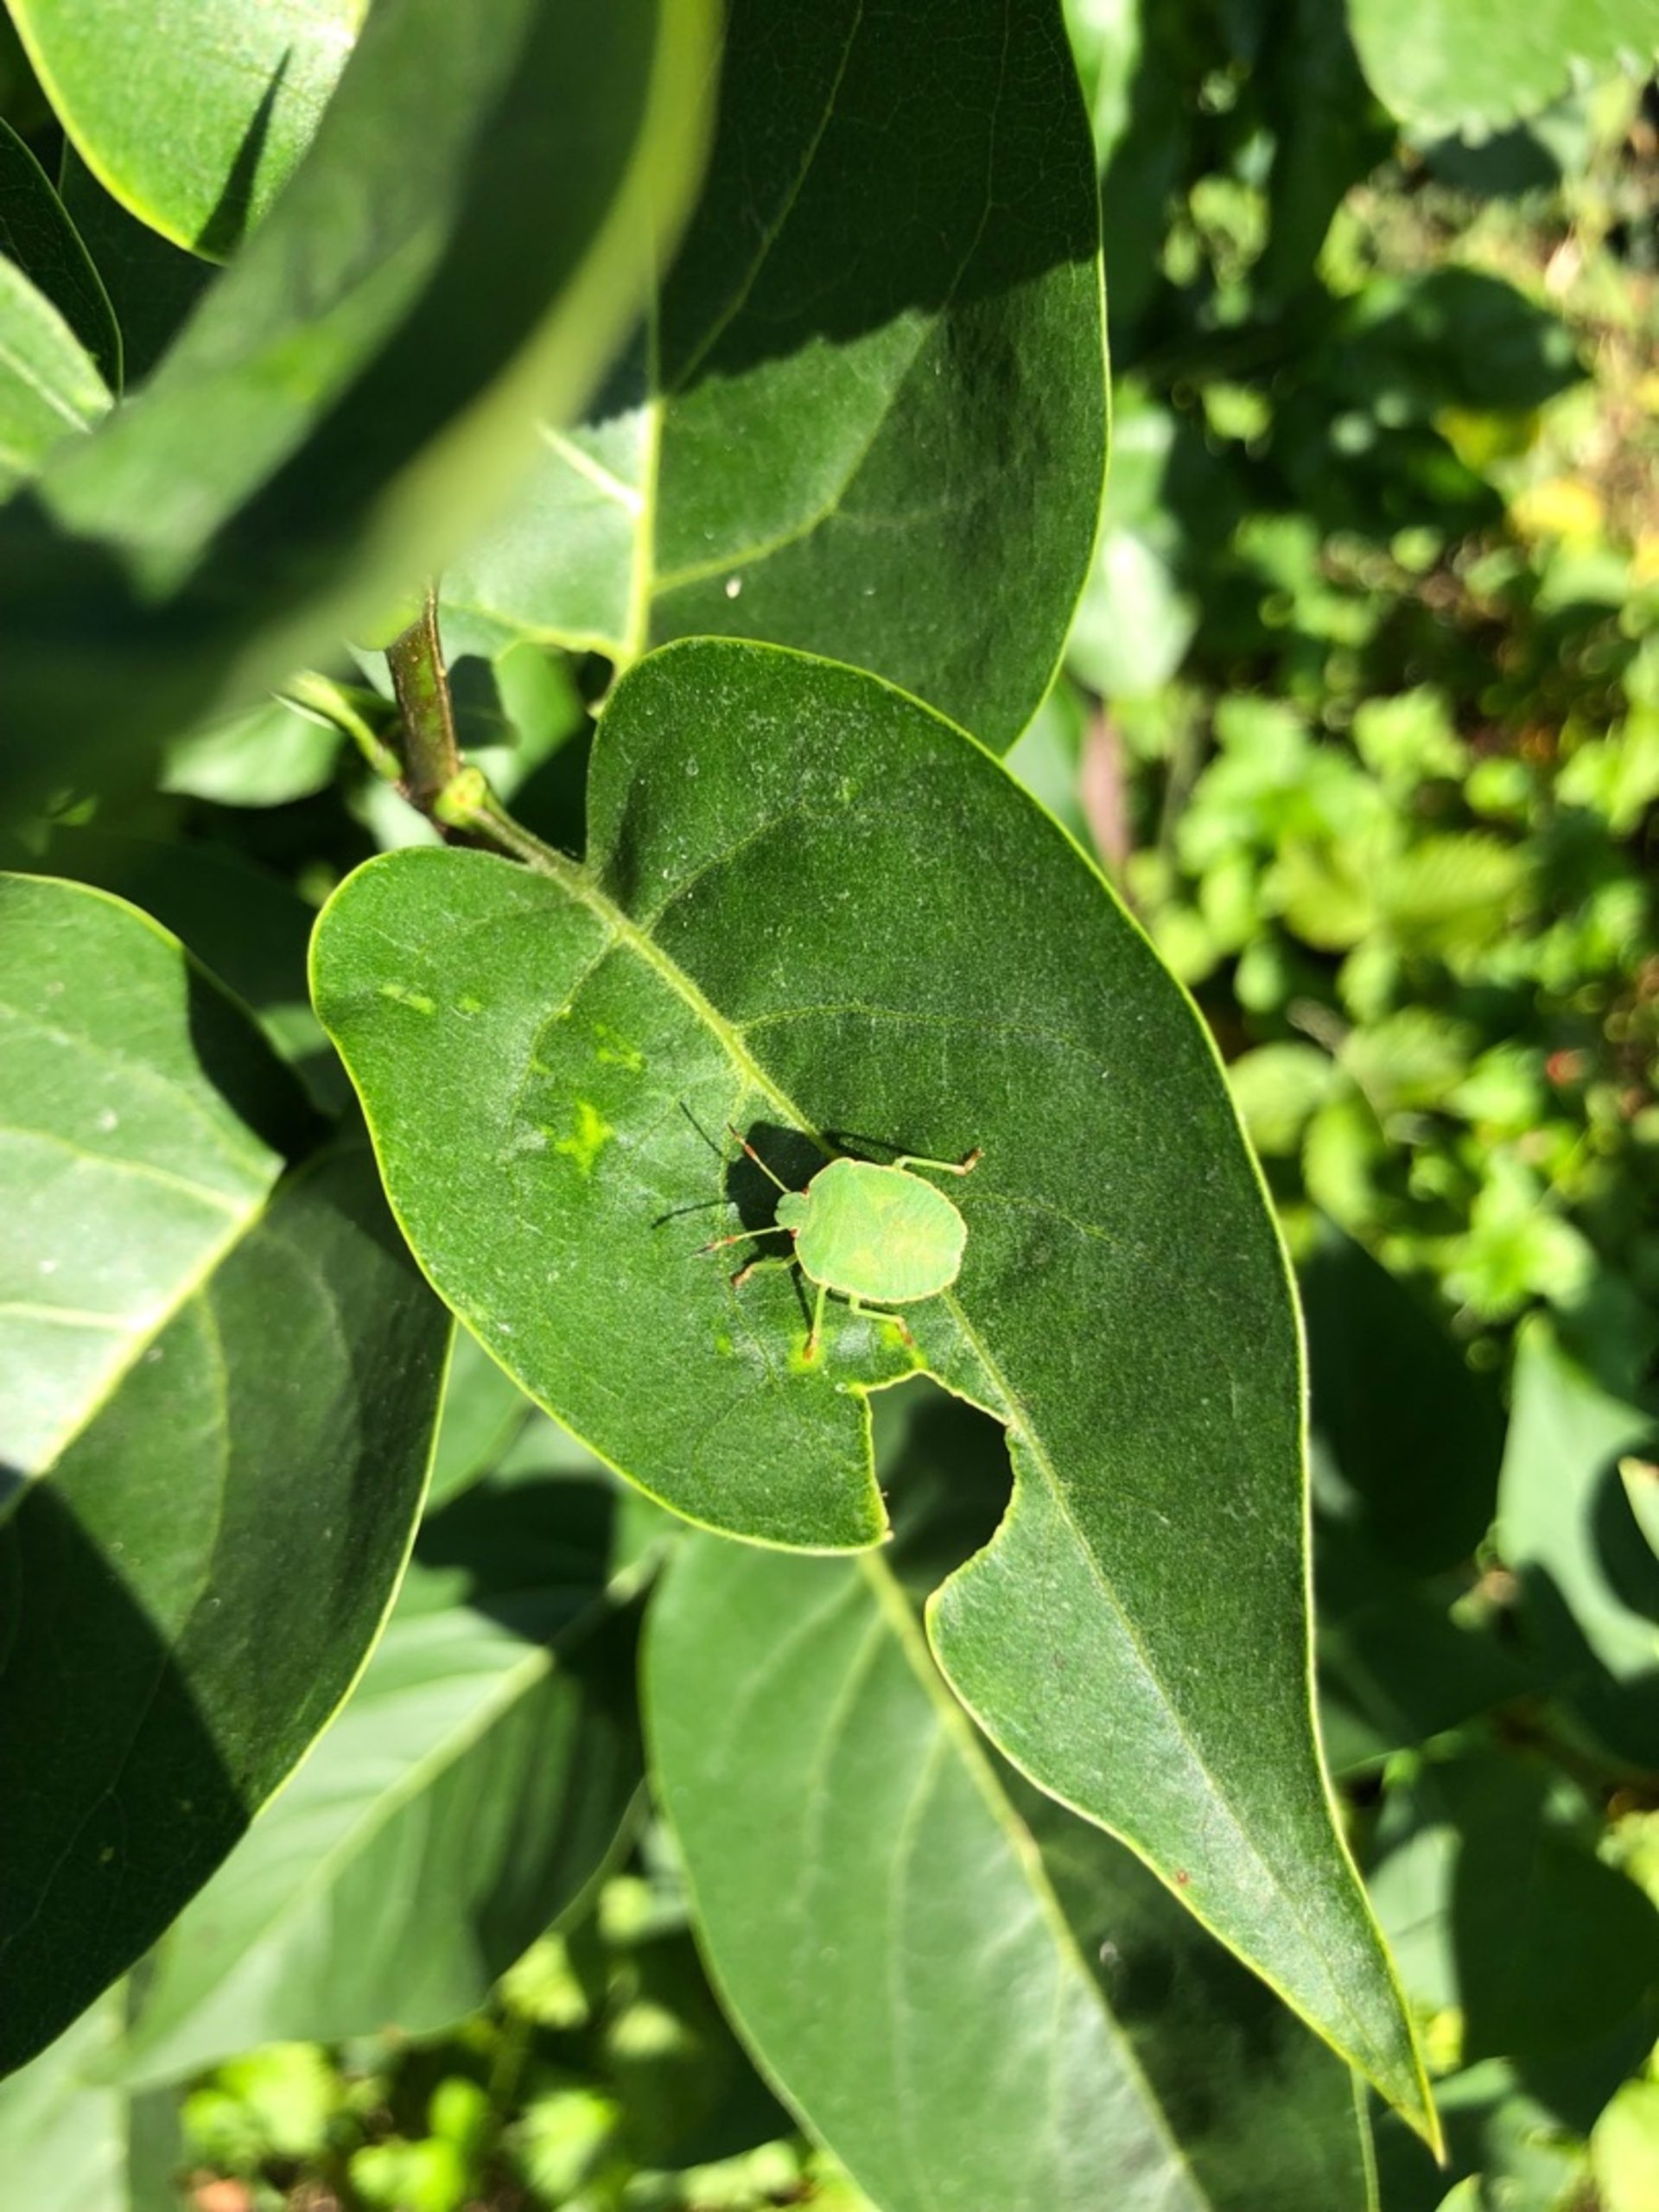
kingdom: Animalia
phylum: Arthropoda
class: Insecta
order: Hemiptera
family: Pentatomidae
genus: Palomena
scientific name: Palomena prasina
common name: Grøn bredtæge
